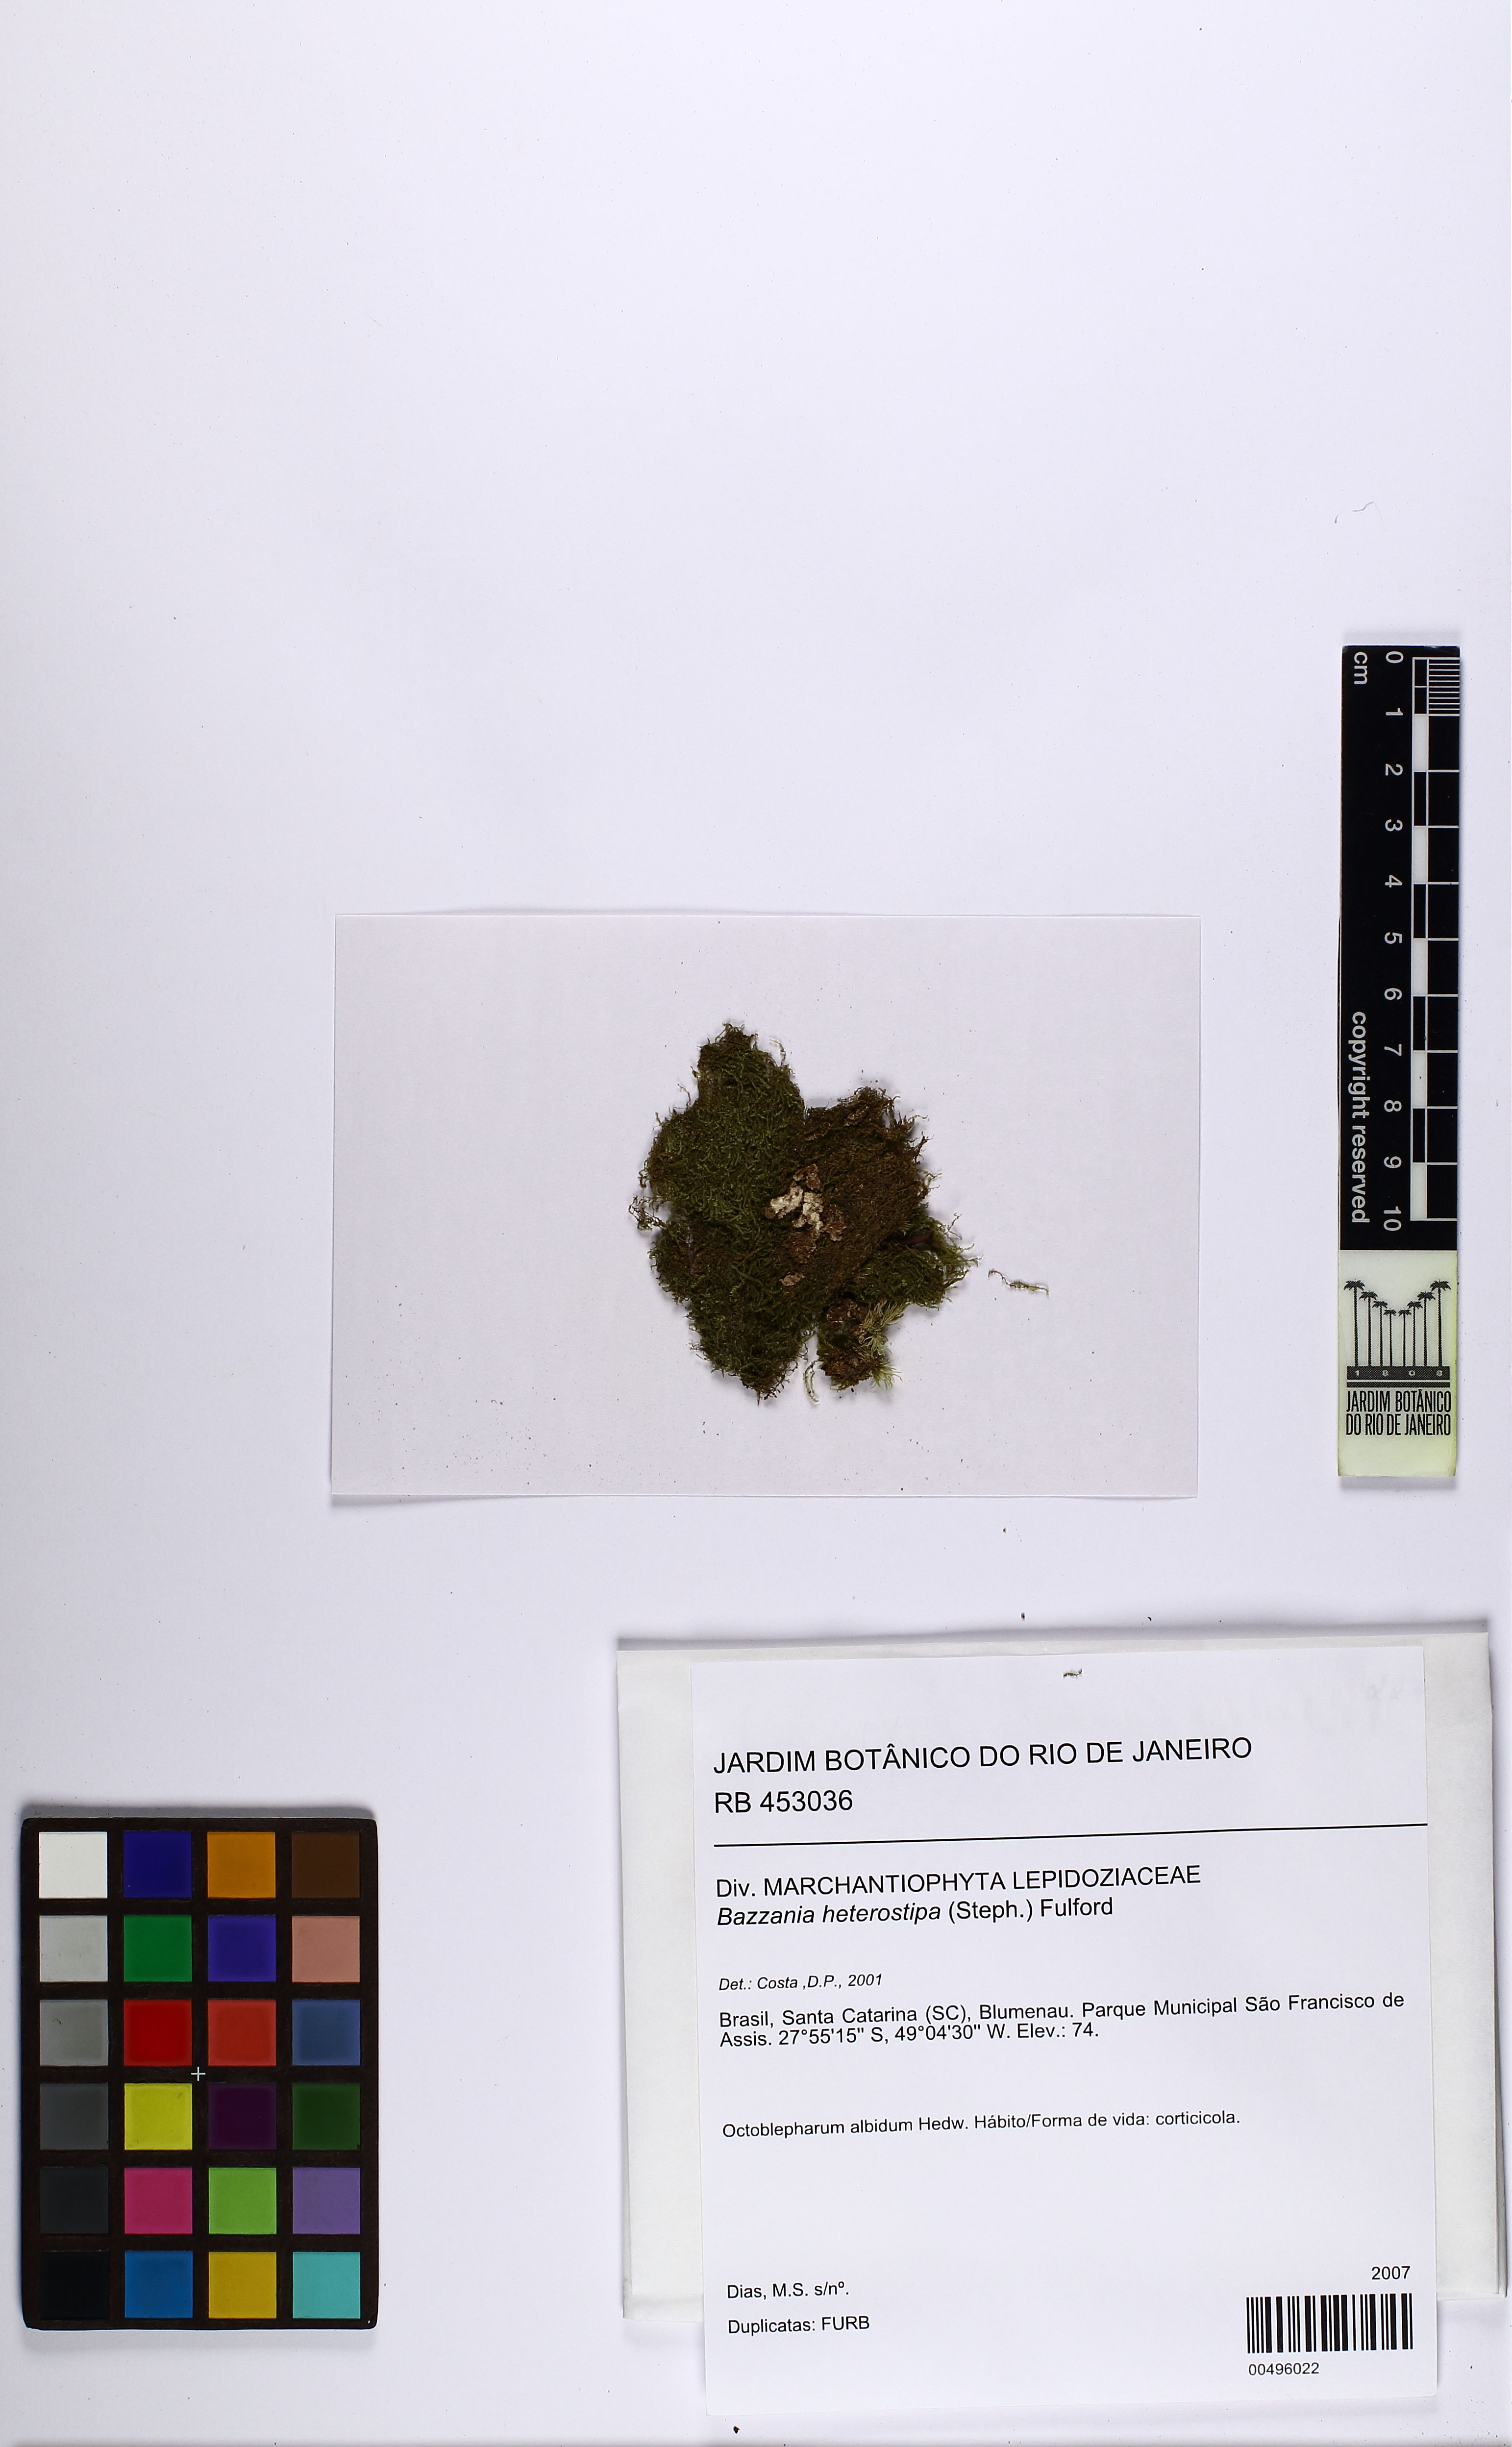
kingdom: Plantae
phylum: Marchantiophyta
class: Jungermanniopsida
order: Jungermanniales
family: Lepidoziaceae
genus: Bazzania
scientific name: Bazzania nitida
